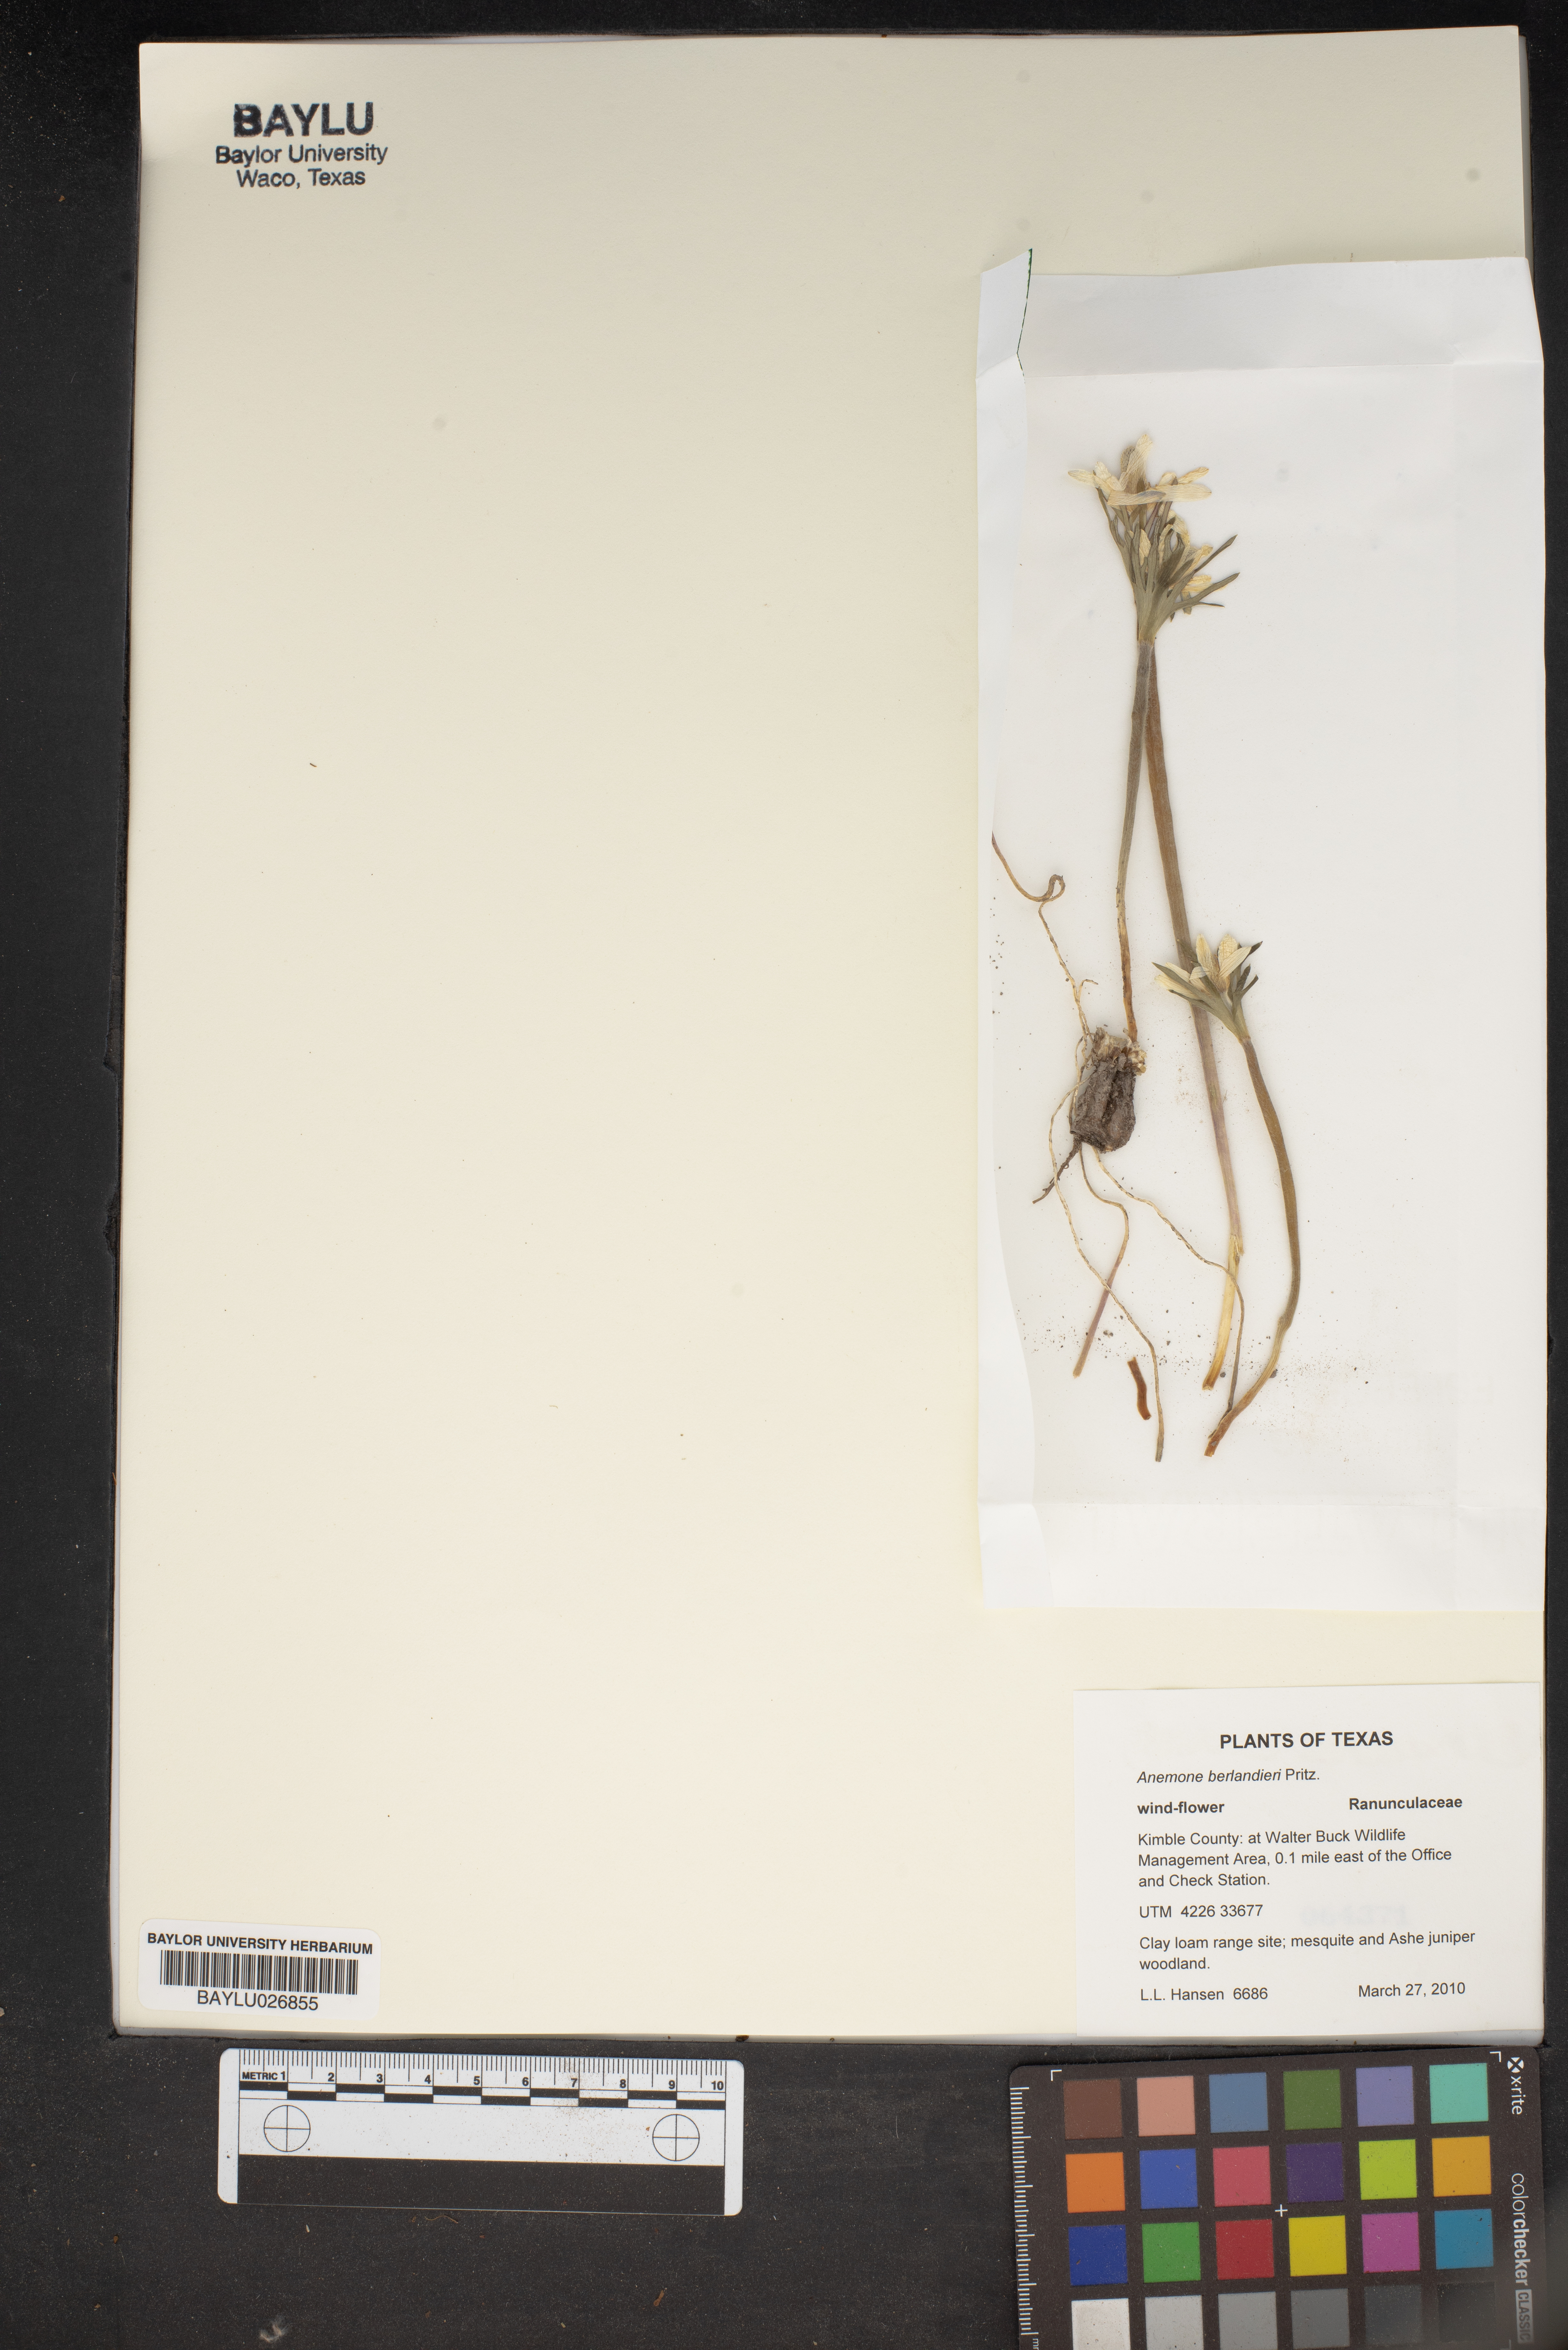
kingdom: Plantae
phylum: Tracheophyta
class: Magnoliopsida
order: Ranunculales
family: Ranunculaceae
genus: Anemone
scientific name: Anemone berlandieri
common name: Ten-petal anemone
